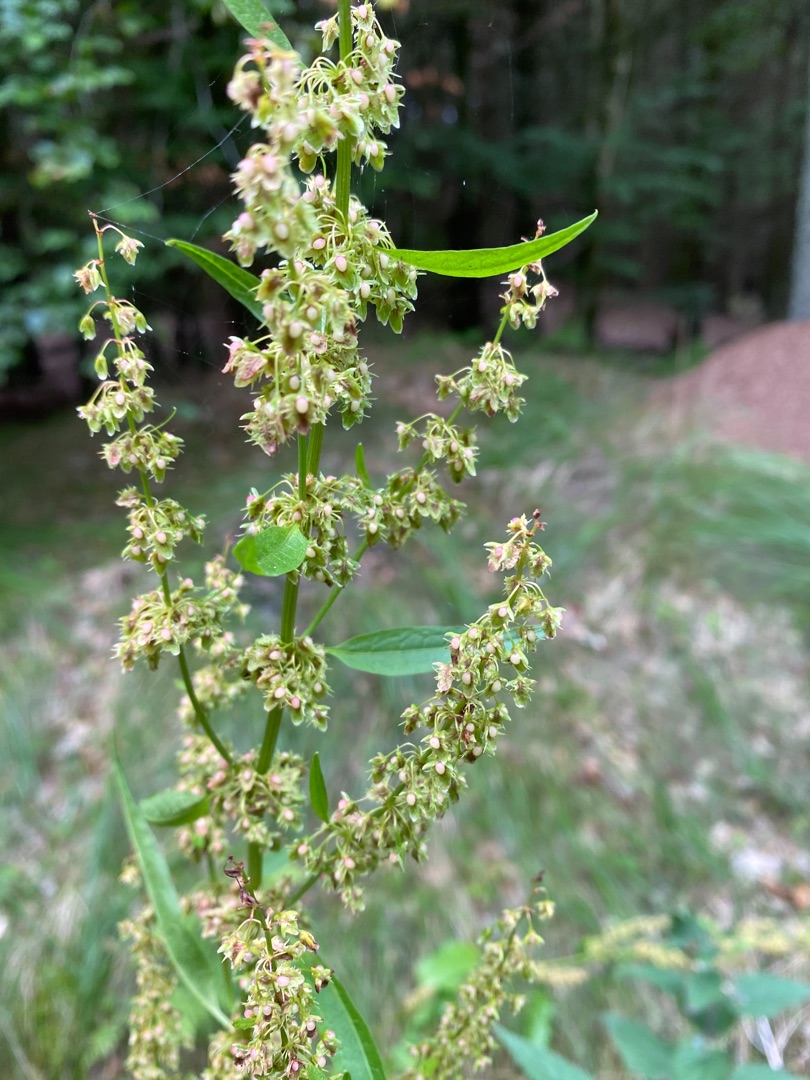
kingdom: Plantae
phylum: Tracheophyta
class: Magnoliopsida
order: Caryophyllales
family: Polygonaceae
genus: Rumex
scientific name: Rumex obtusifolius
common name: Butbladet skræppe
